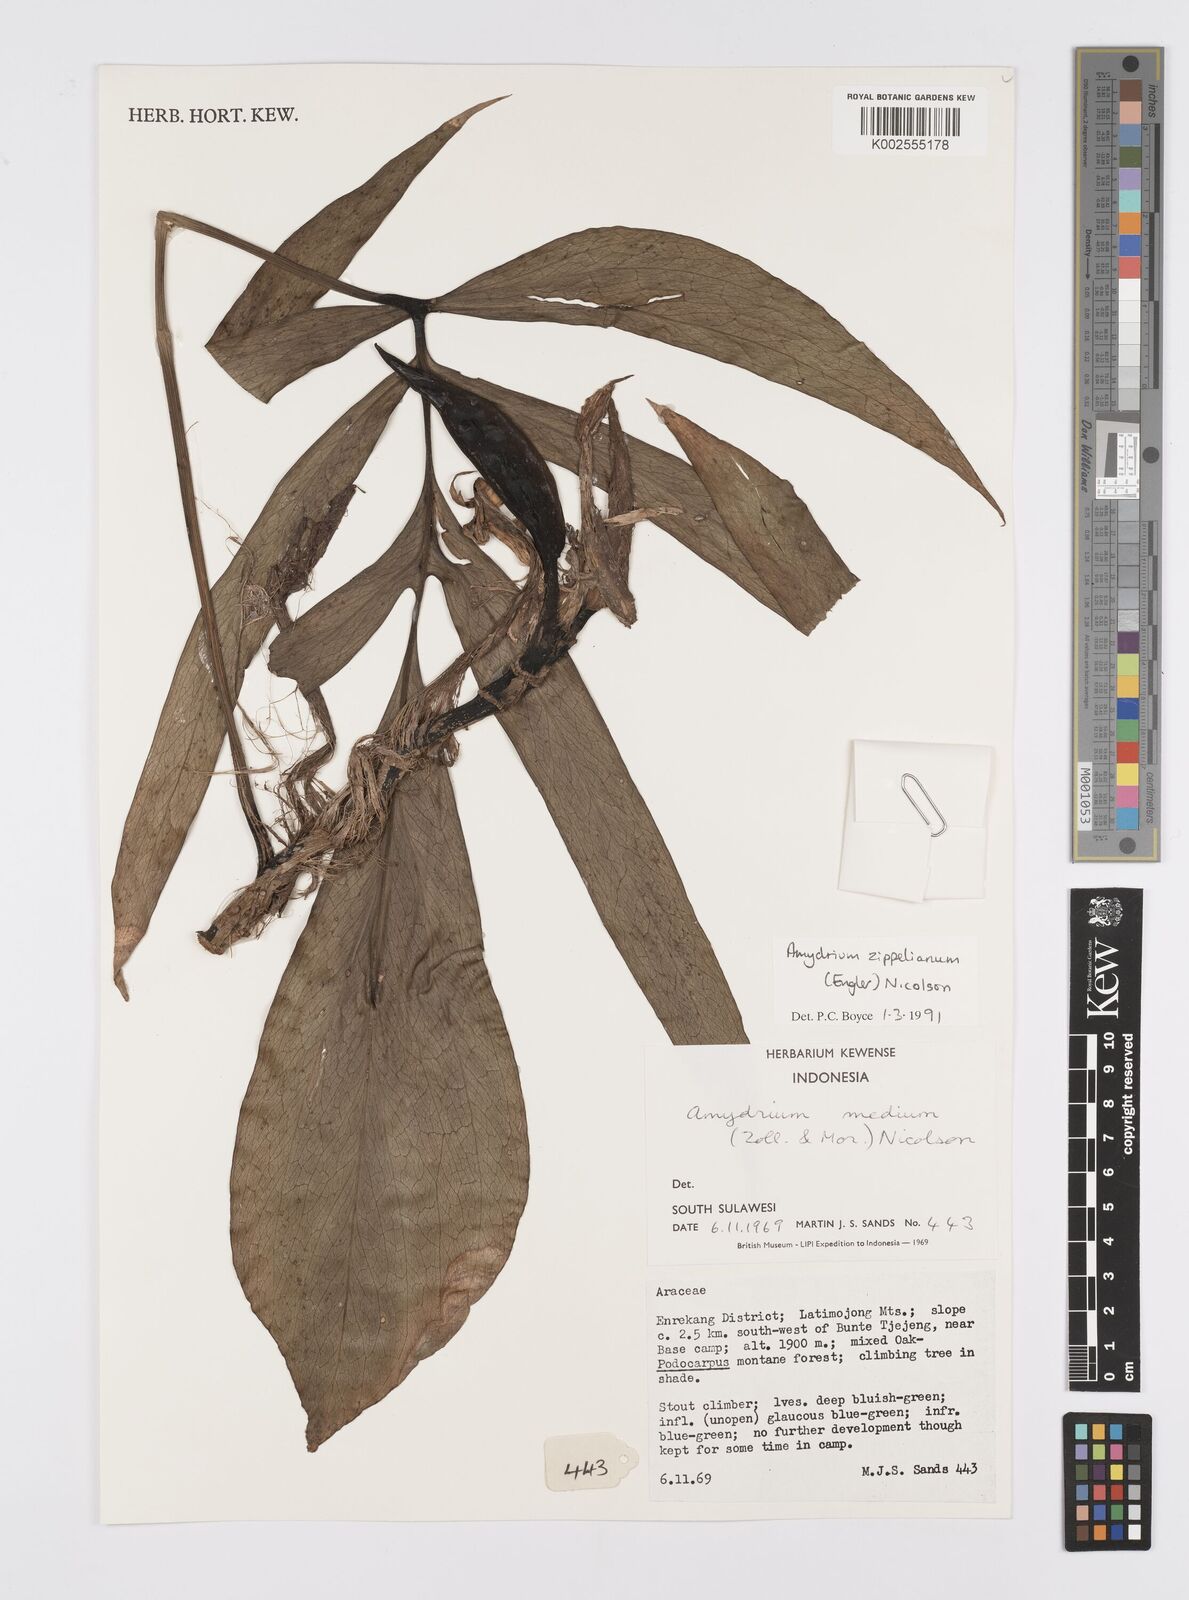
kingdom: Plantae
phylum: Tracheophyta
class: Liliopsida
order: Alismatales
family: Araceae
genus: Amydrium
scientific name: Amydrium zippelianum
